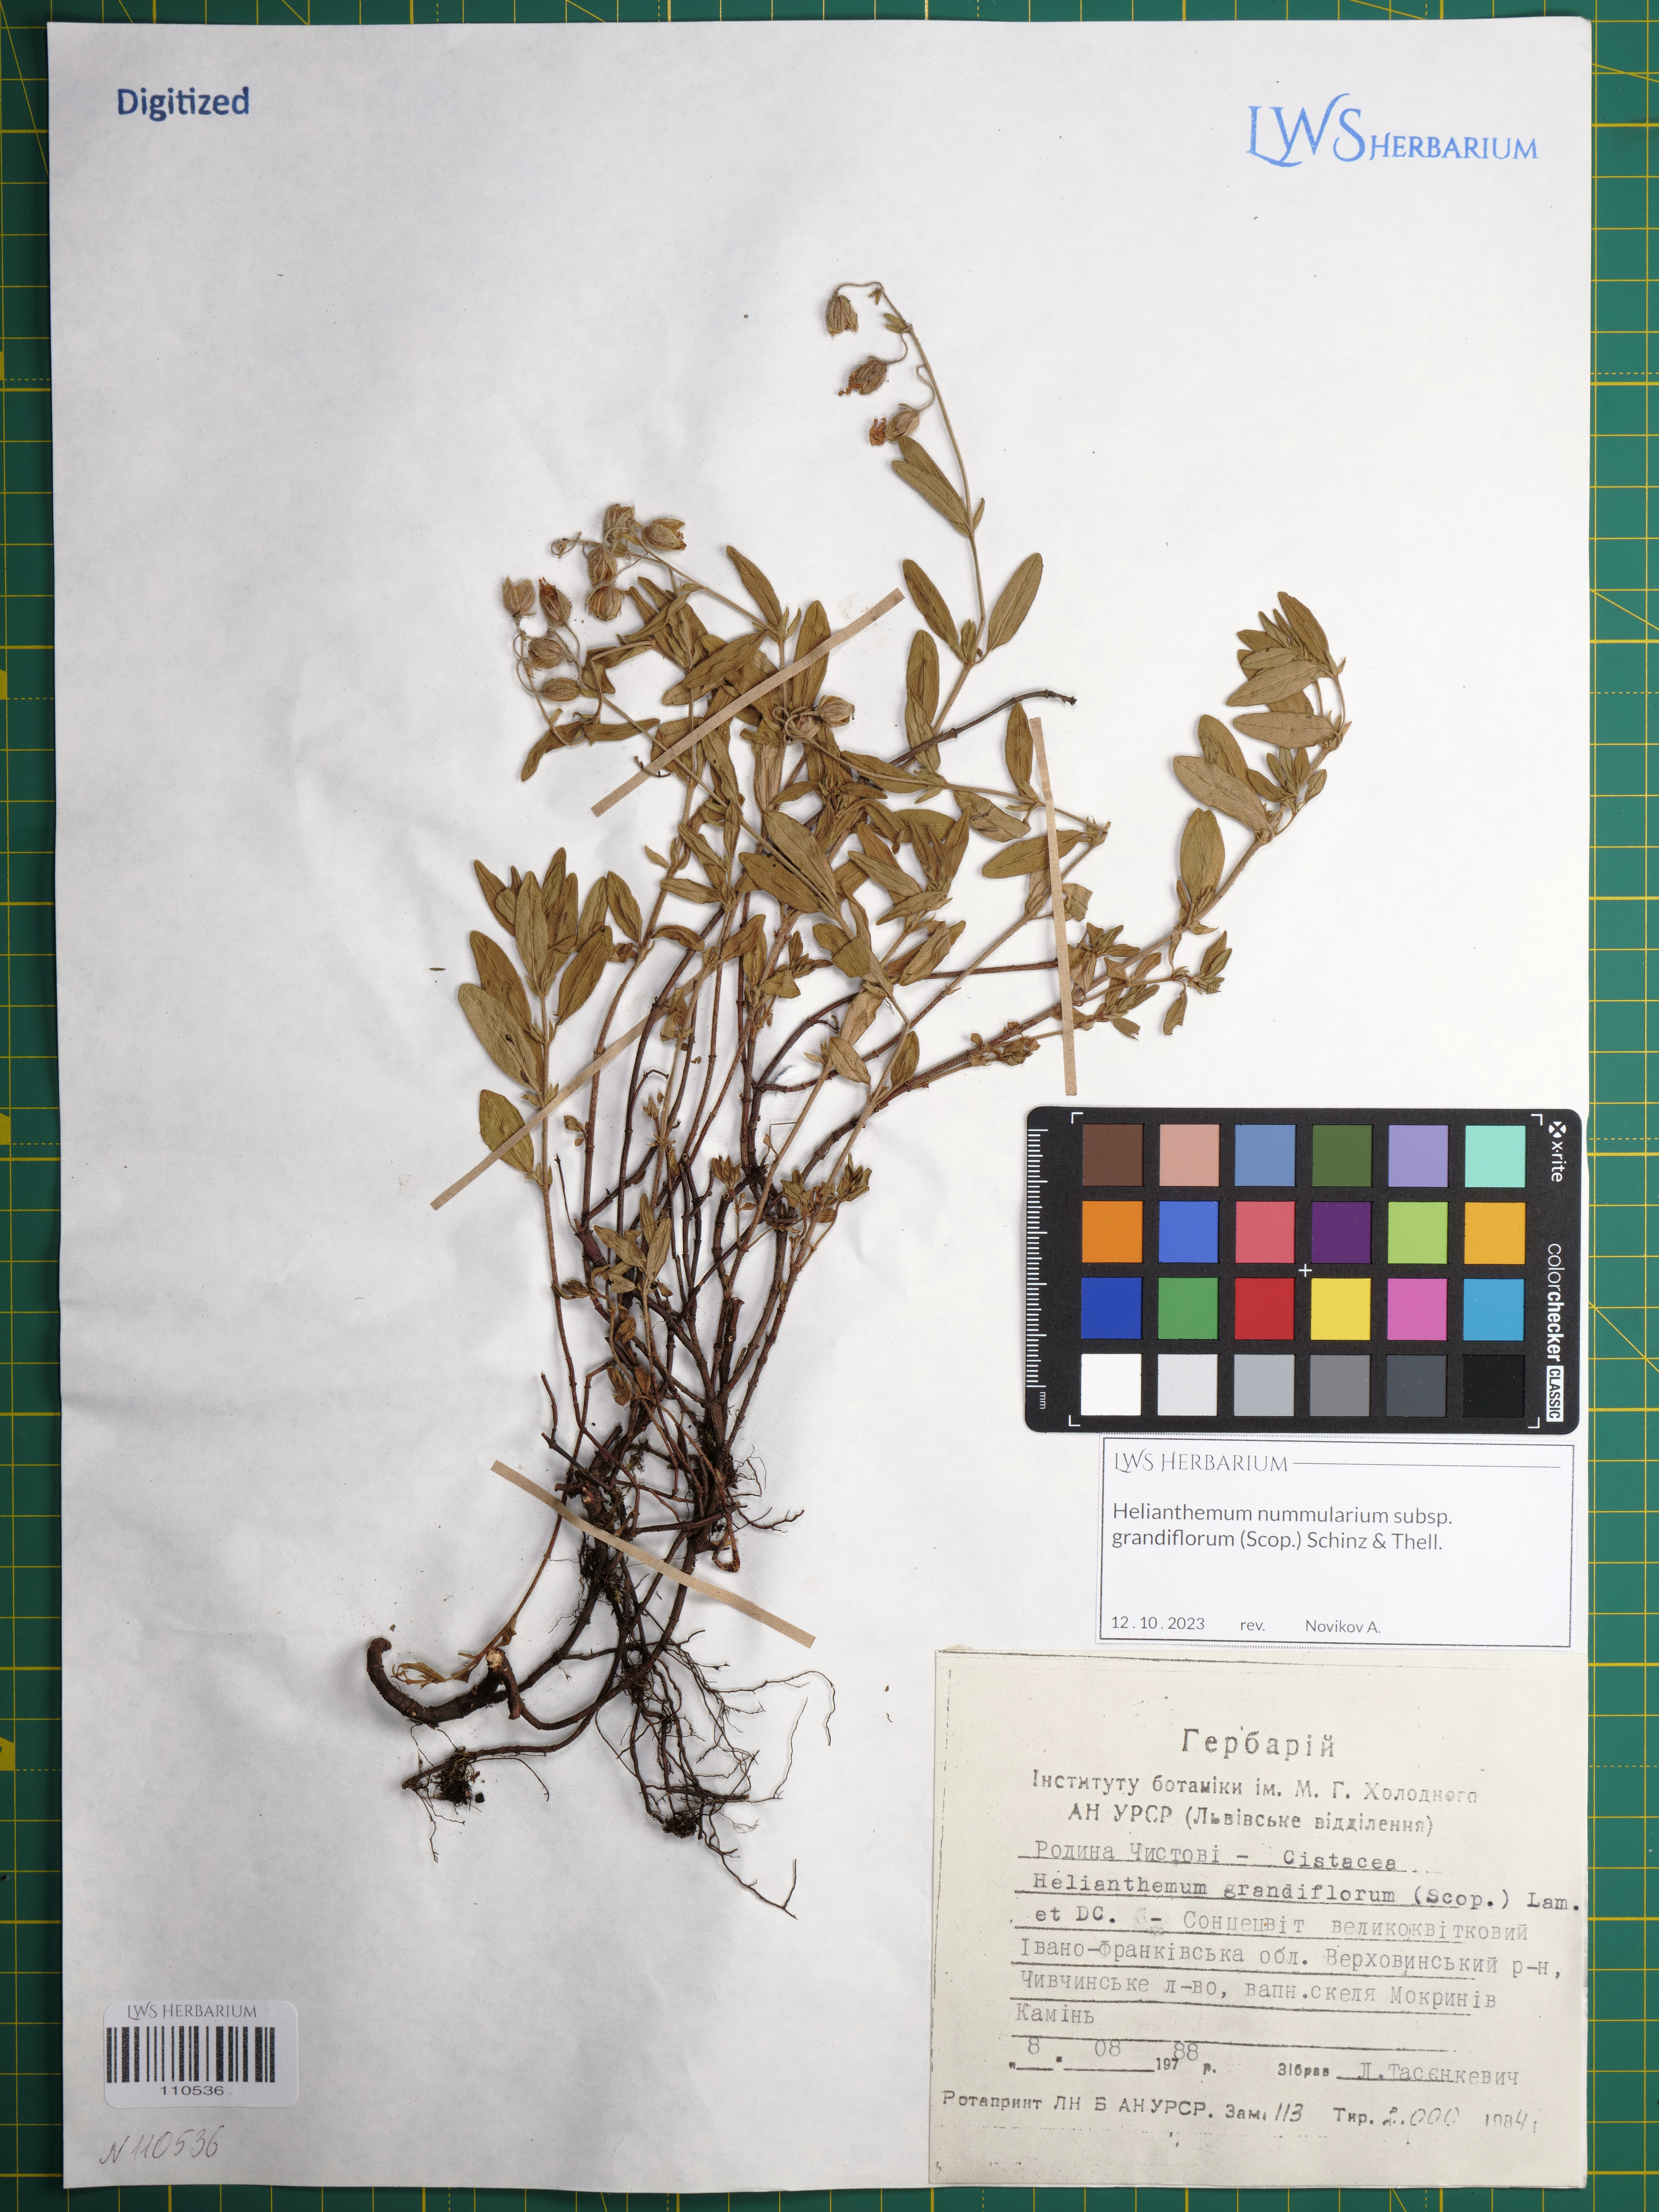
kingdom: Plantae
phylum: Tracheophyta
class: Magnoliopsida
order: Malvales
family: Cistaceae
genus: Helianthemum
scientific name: Helianthemum nummularium
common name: Common rock-rose
